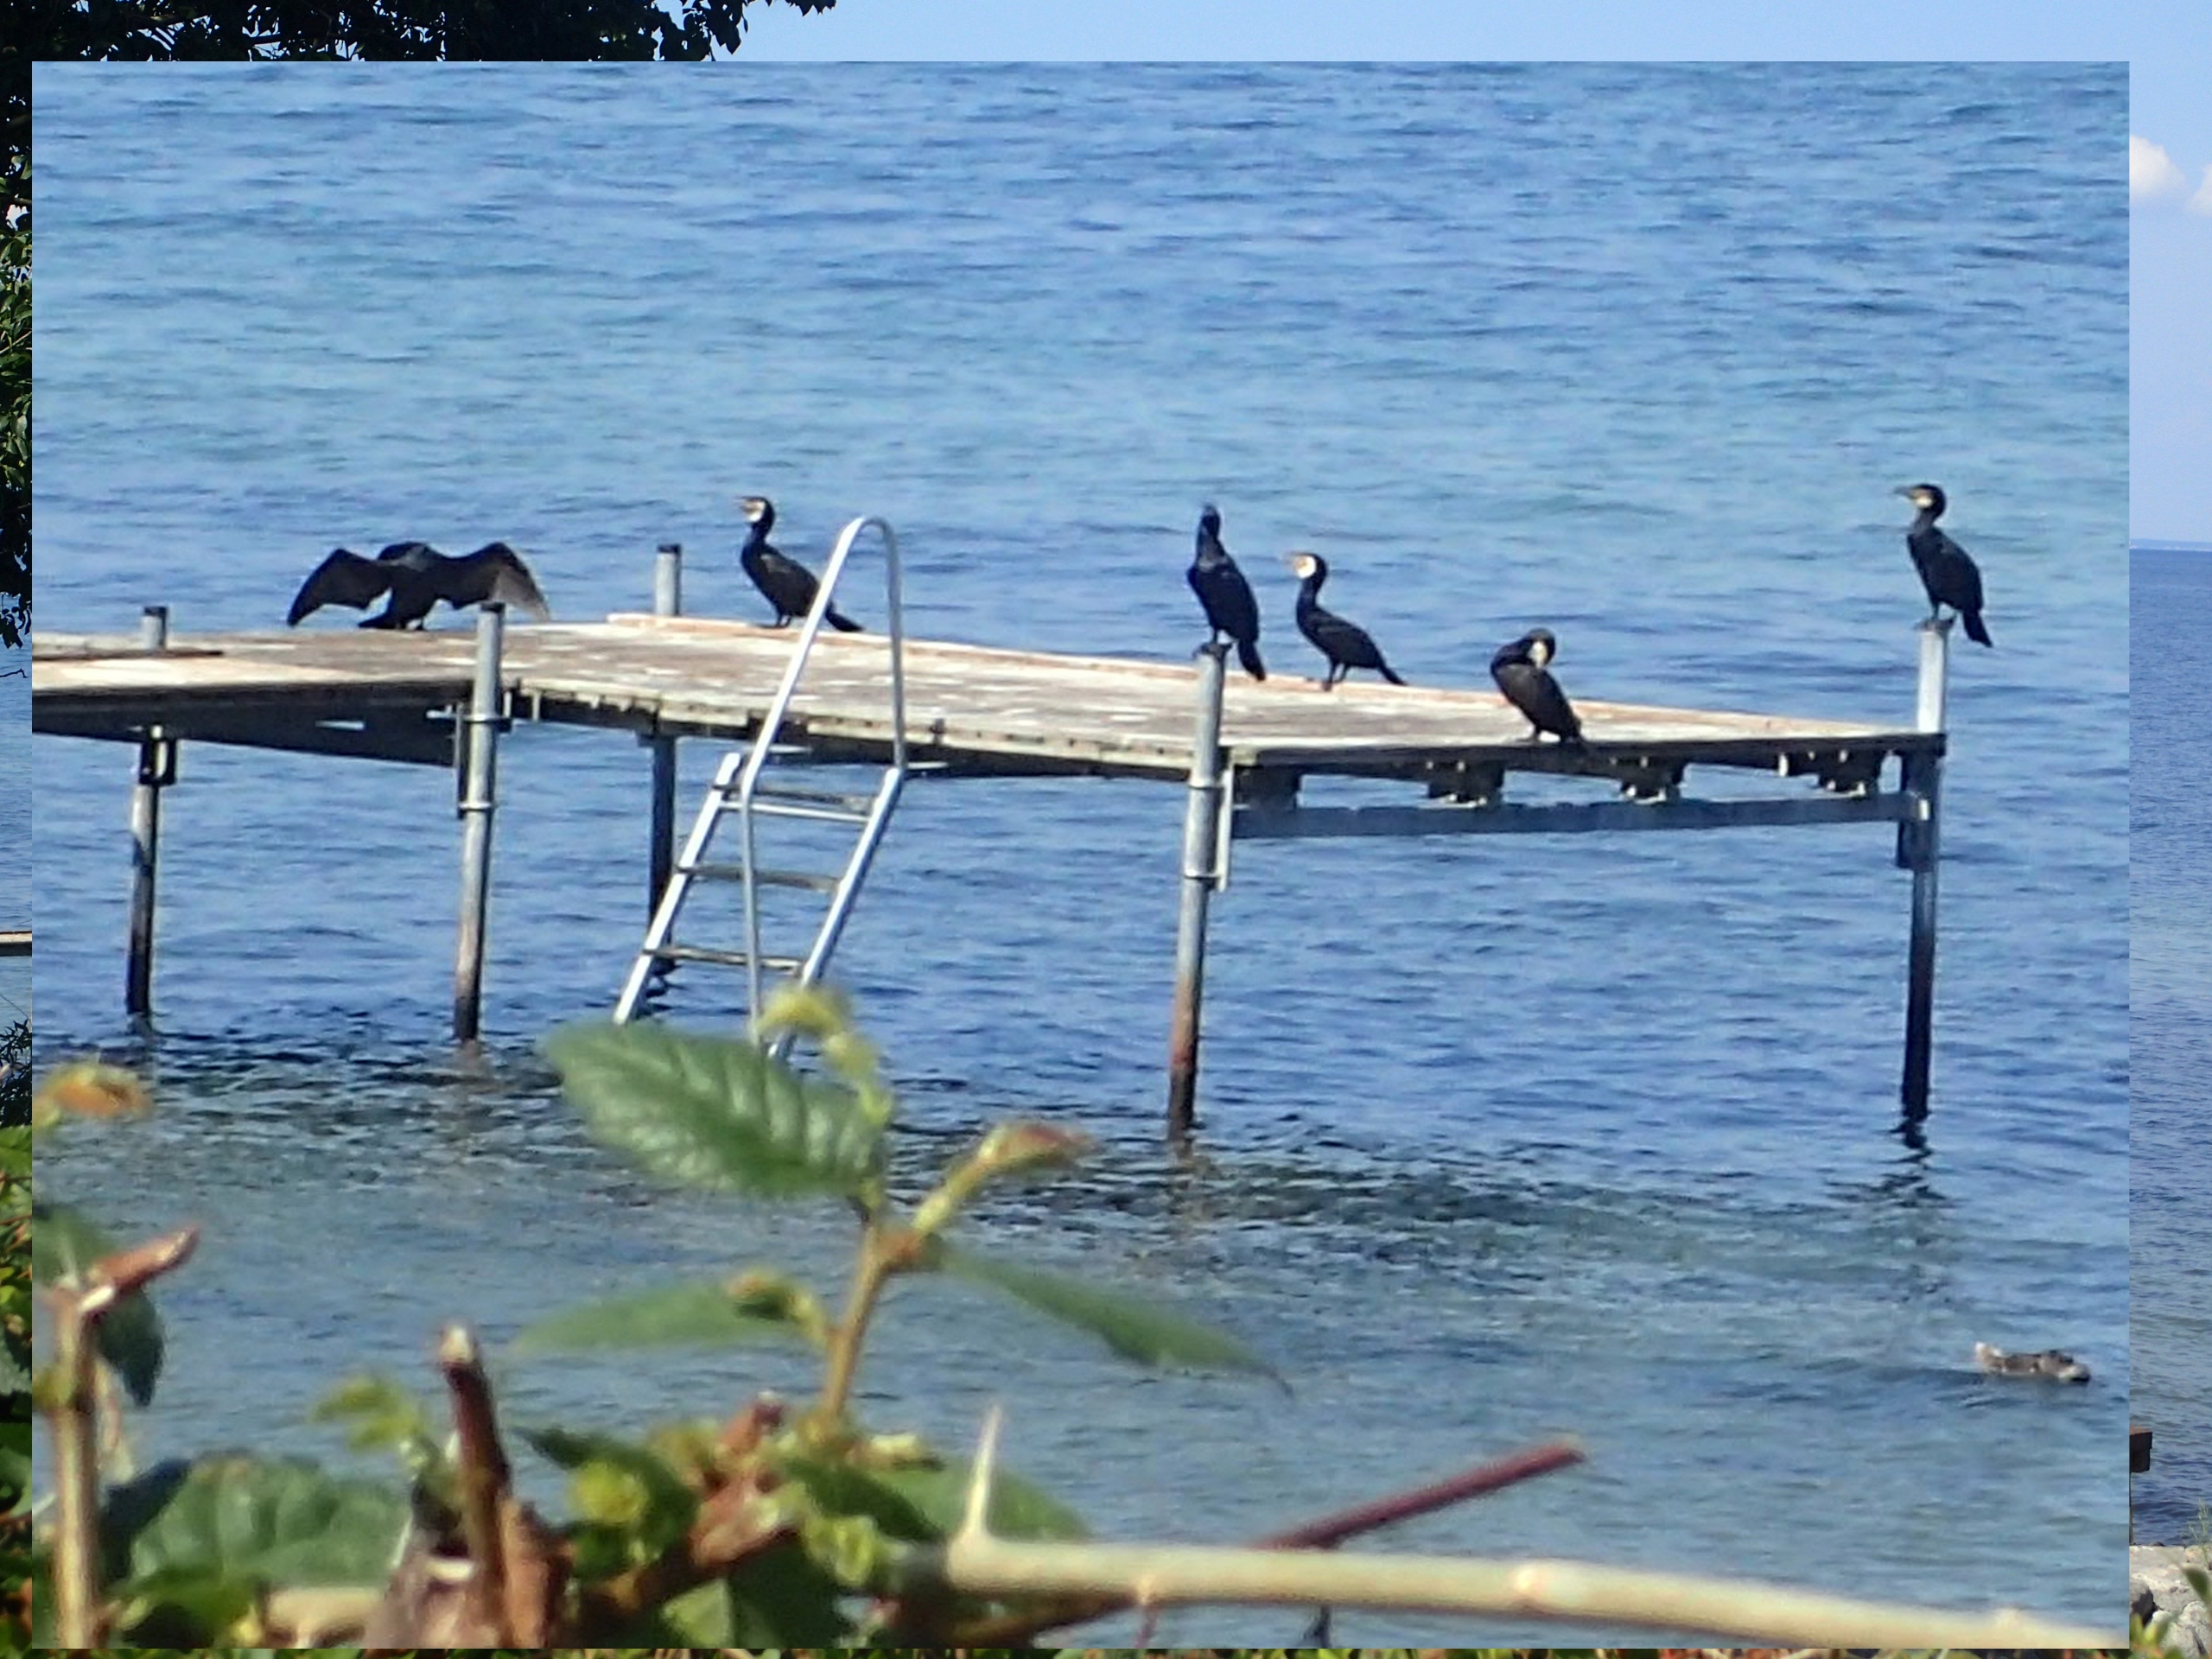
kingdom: Animalia
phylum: Chordata
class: Aves
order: Suliformes
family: Phalacrocoracidae
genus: Phalacrocorax
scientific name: Phalacrocorax carbo
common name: Skarv
